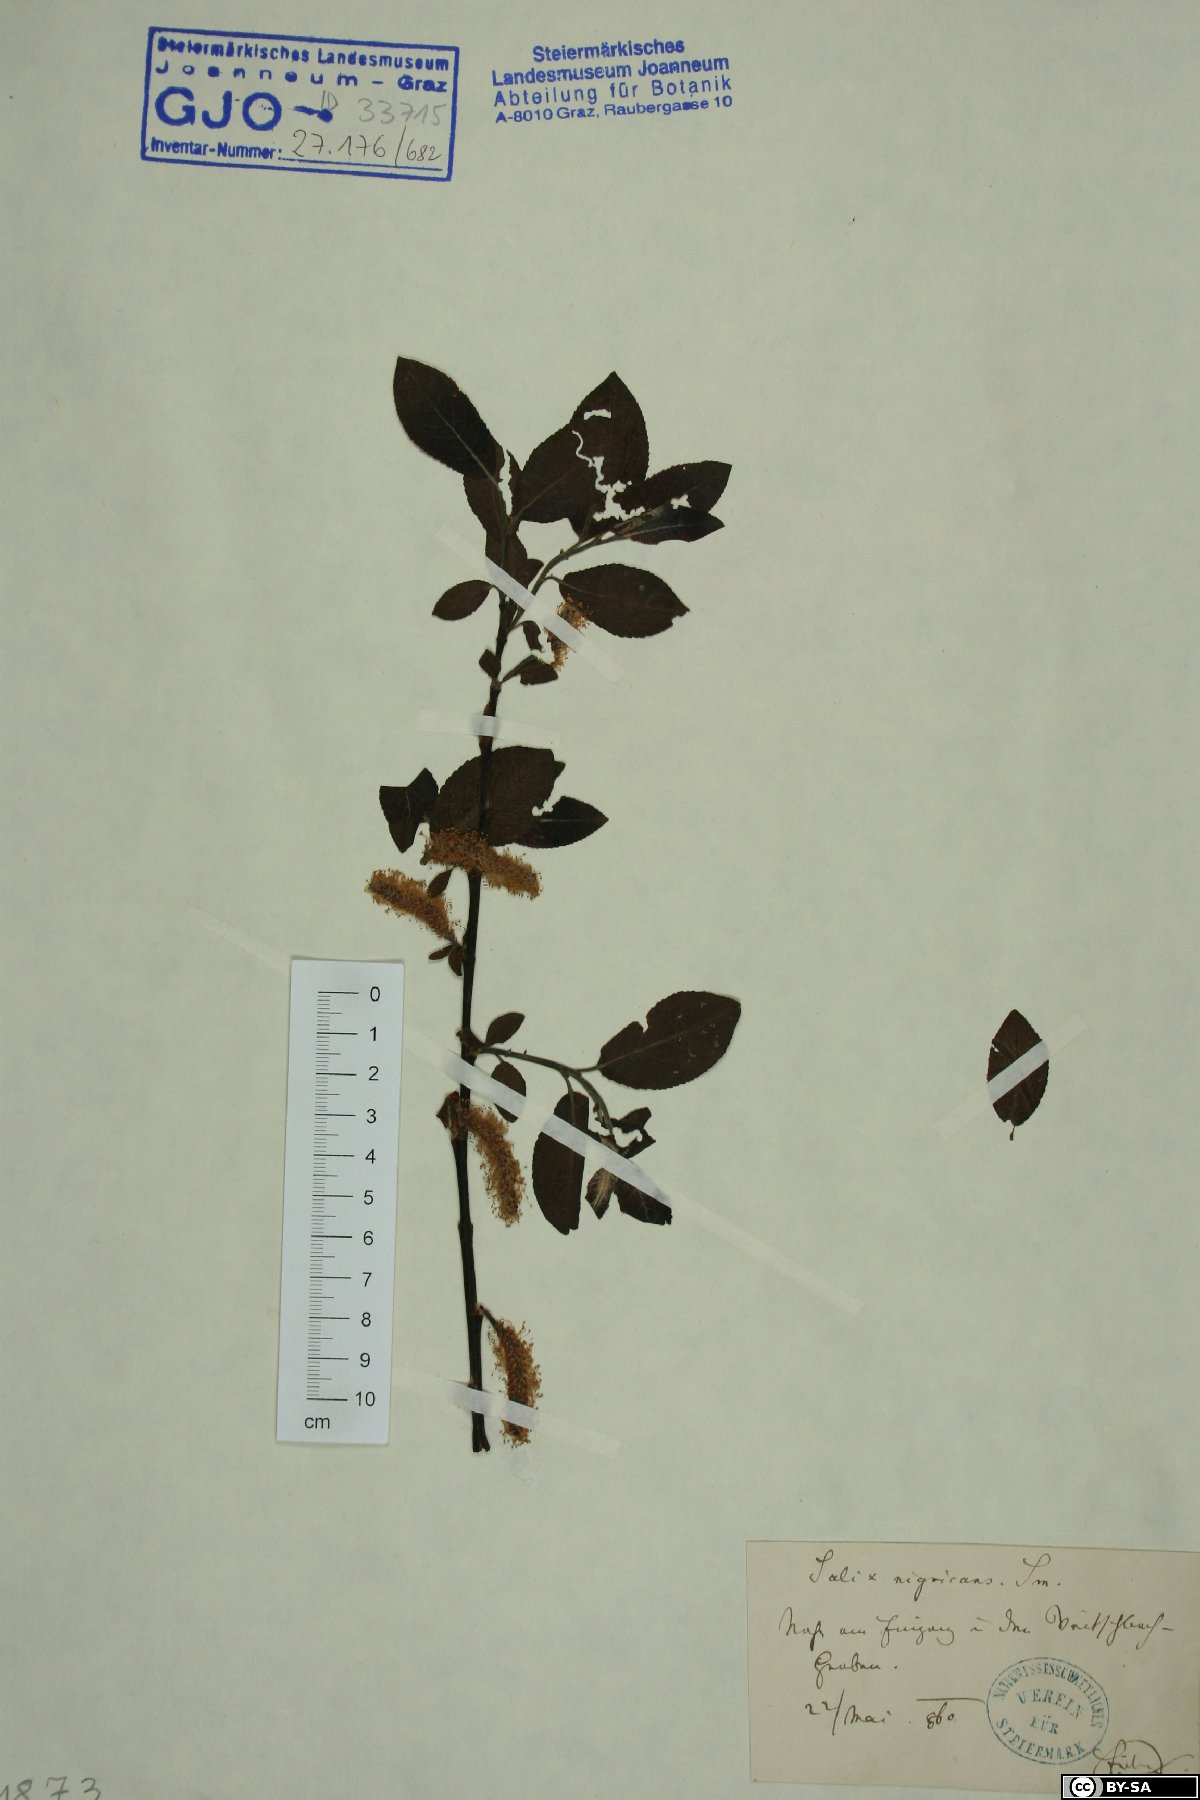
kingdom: Plantae
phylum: Tracheophyta
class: Magnoliopsida
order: Malpighiales
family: Salicaceae
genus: Salix
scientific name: Salix myrsinifolia
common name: Dark-leaved willow
